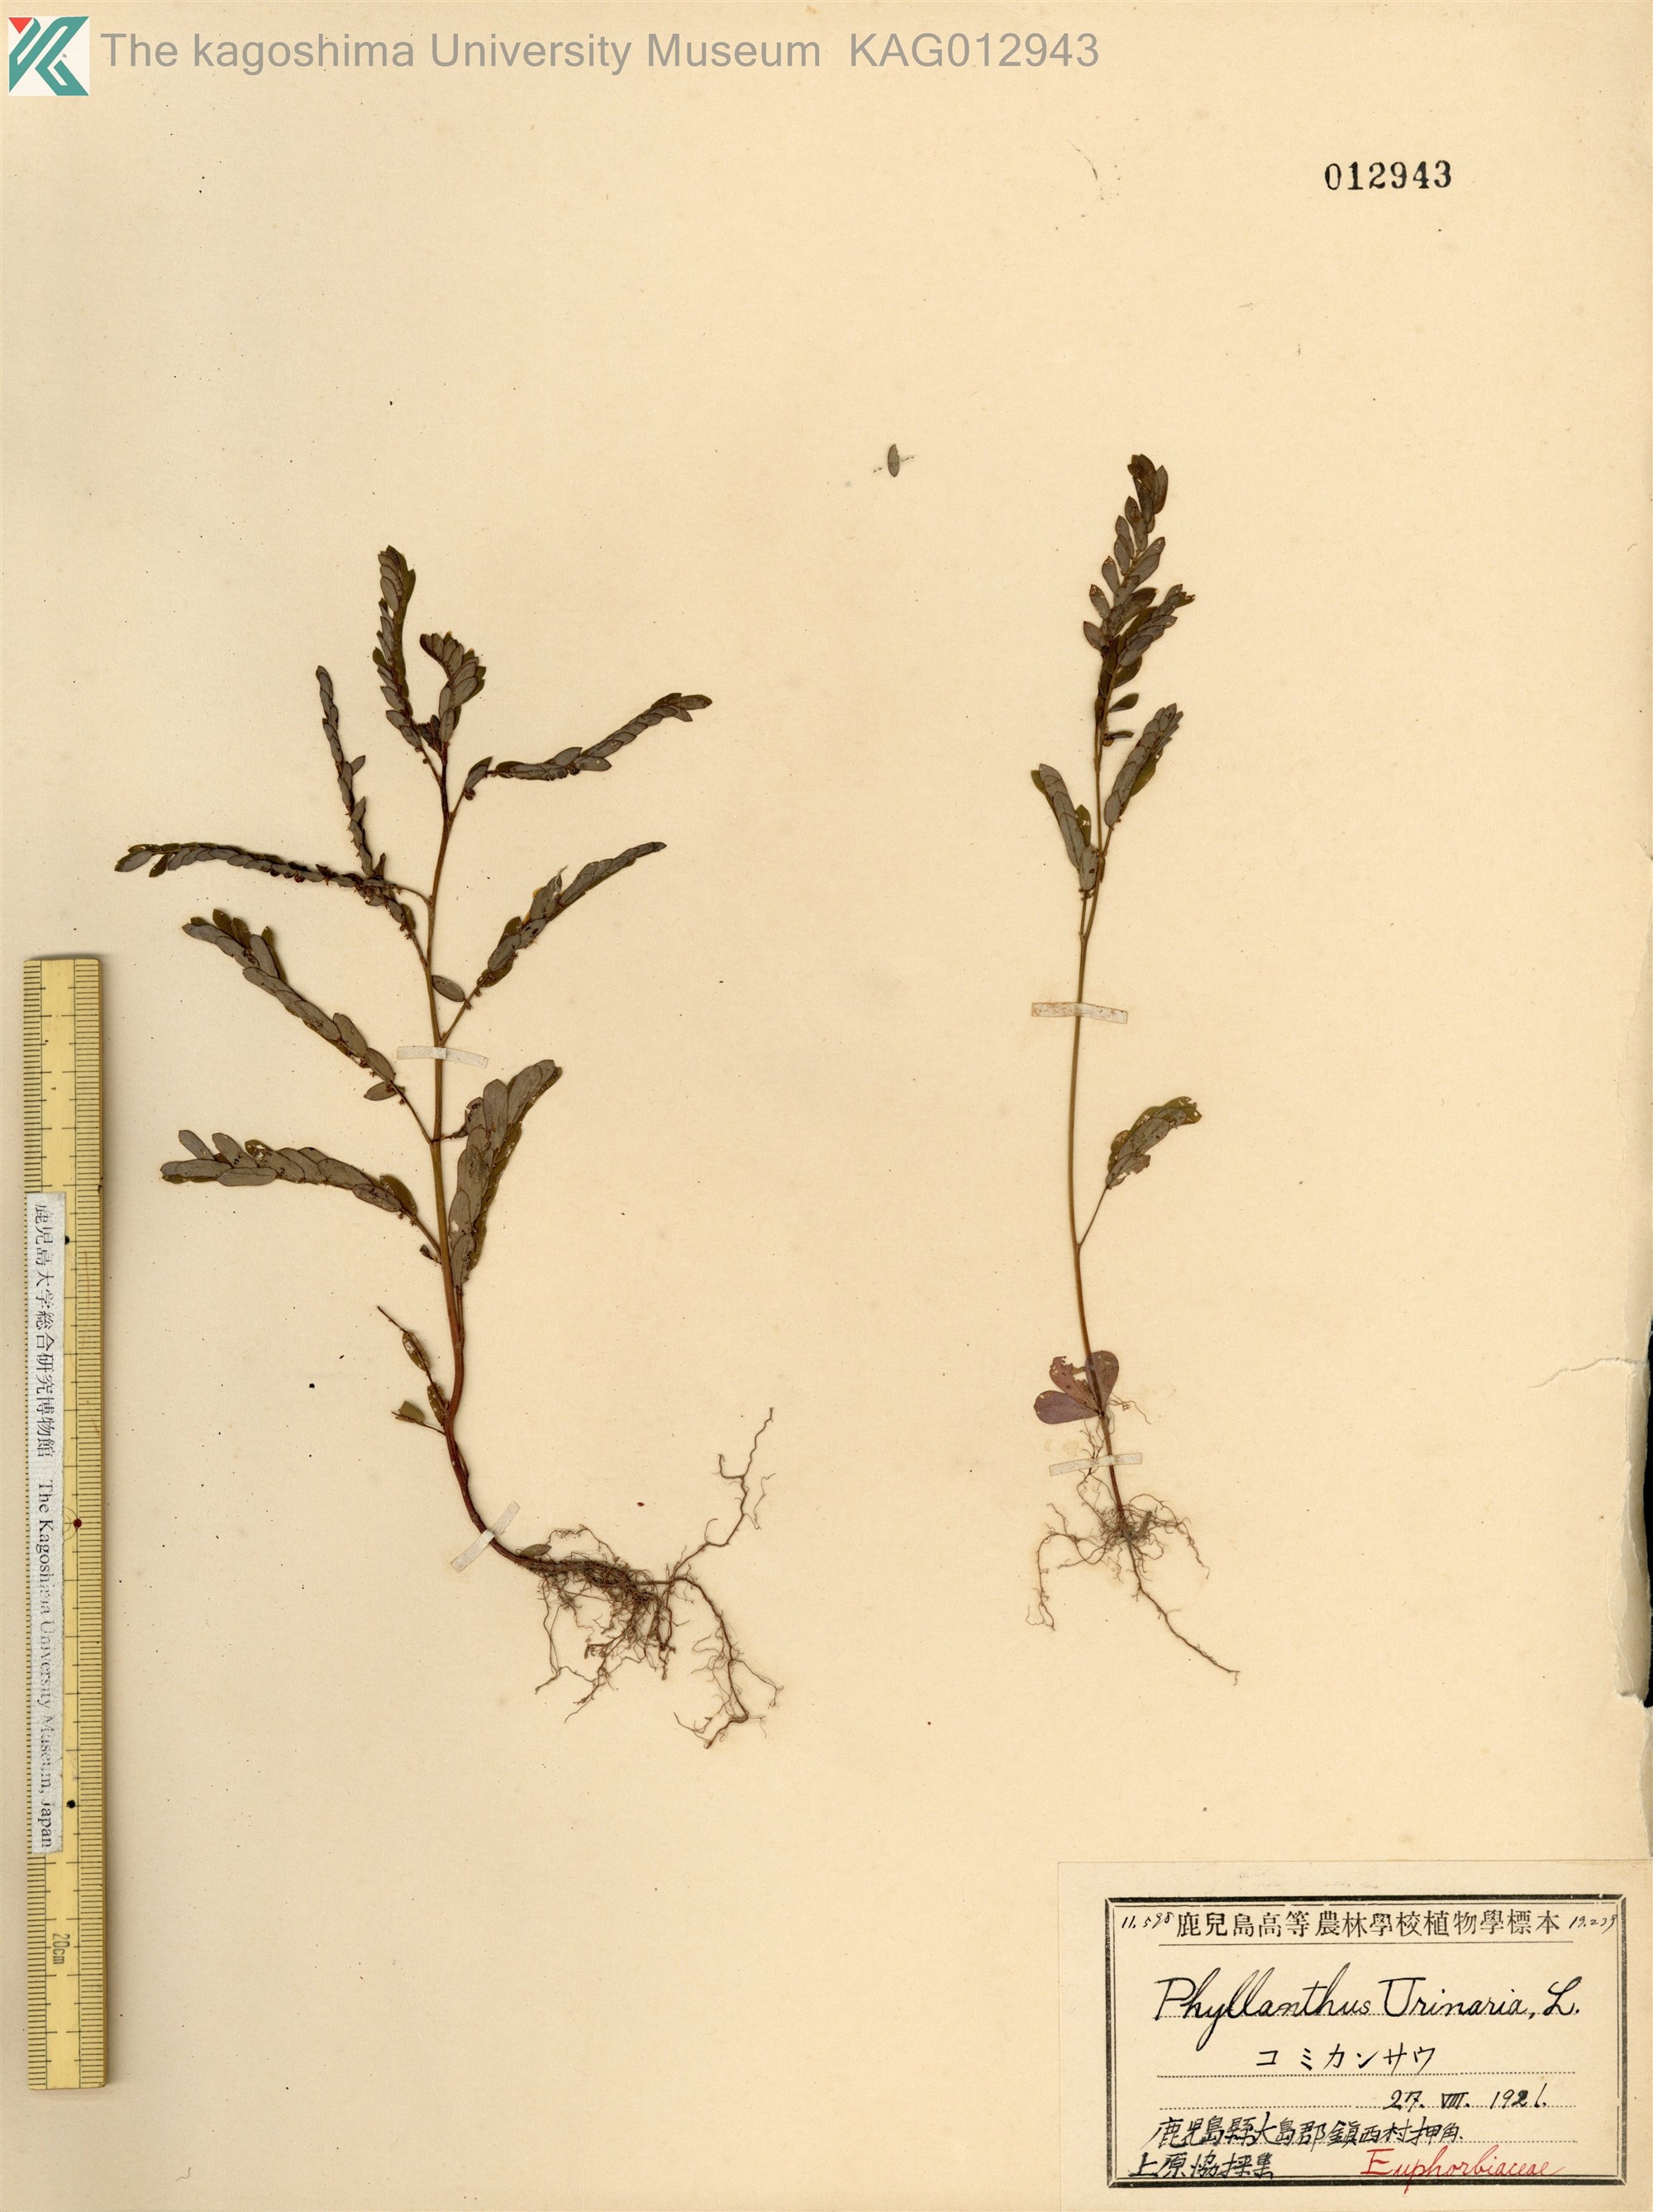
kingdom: Plantae
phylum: Tracheophyta
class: Magnoliopsida
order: Malpighiales
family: Phyllanthaceae
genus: Phyllanthus
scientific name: Phyllanthus urinaria
